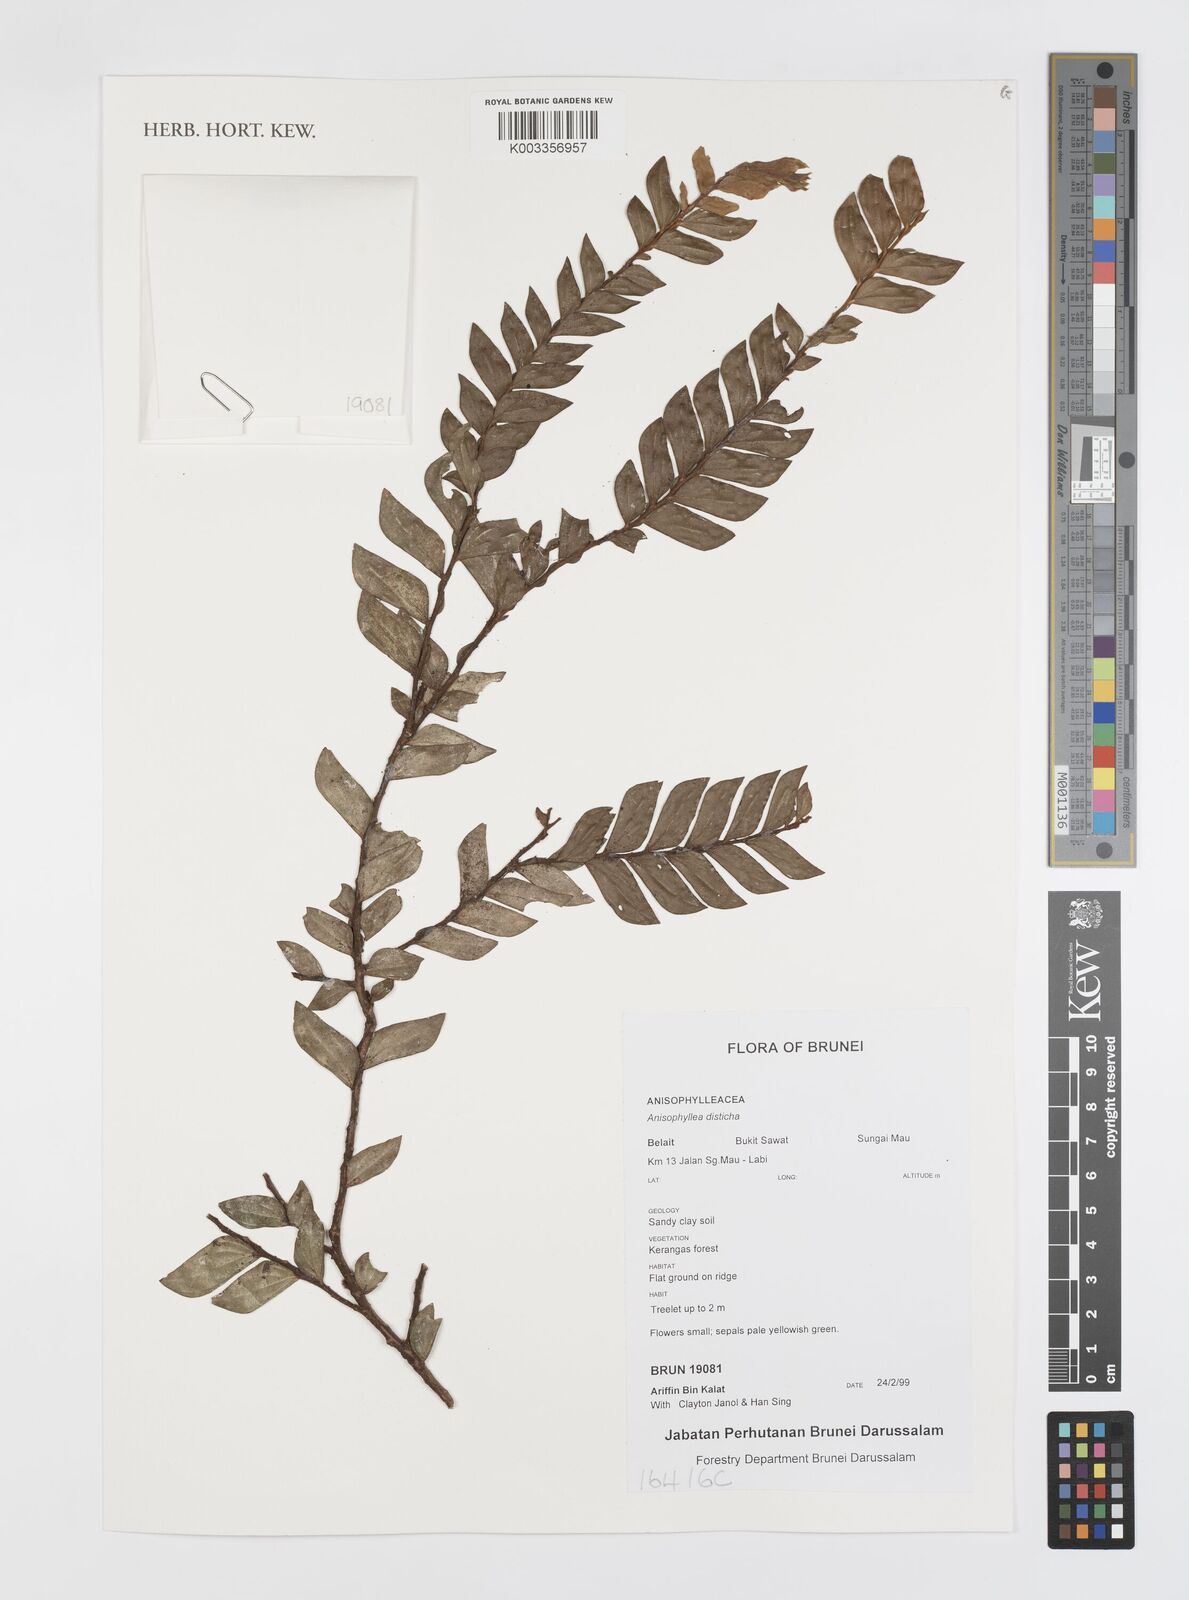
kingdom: Plantae
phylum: Tracheophyta
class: Magnoliopsida
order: Cucurbitales
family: Anisophylleaceae
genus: Anisophyllea
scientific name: Anisophyllea disticha
